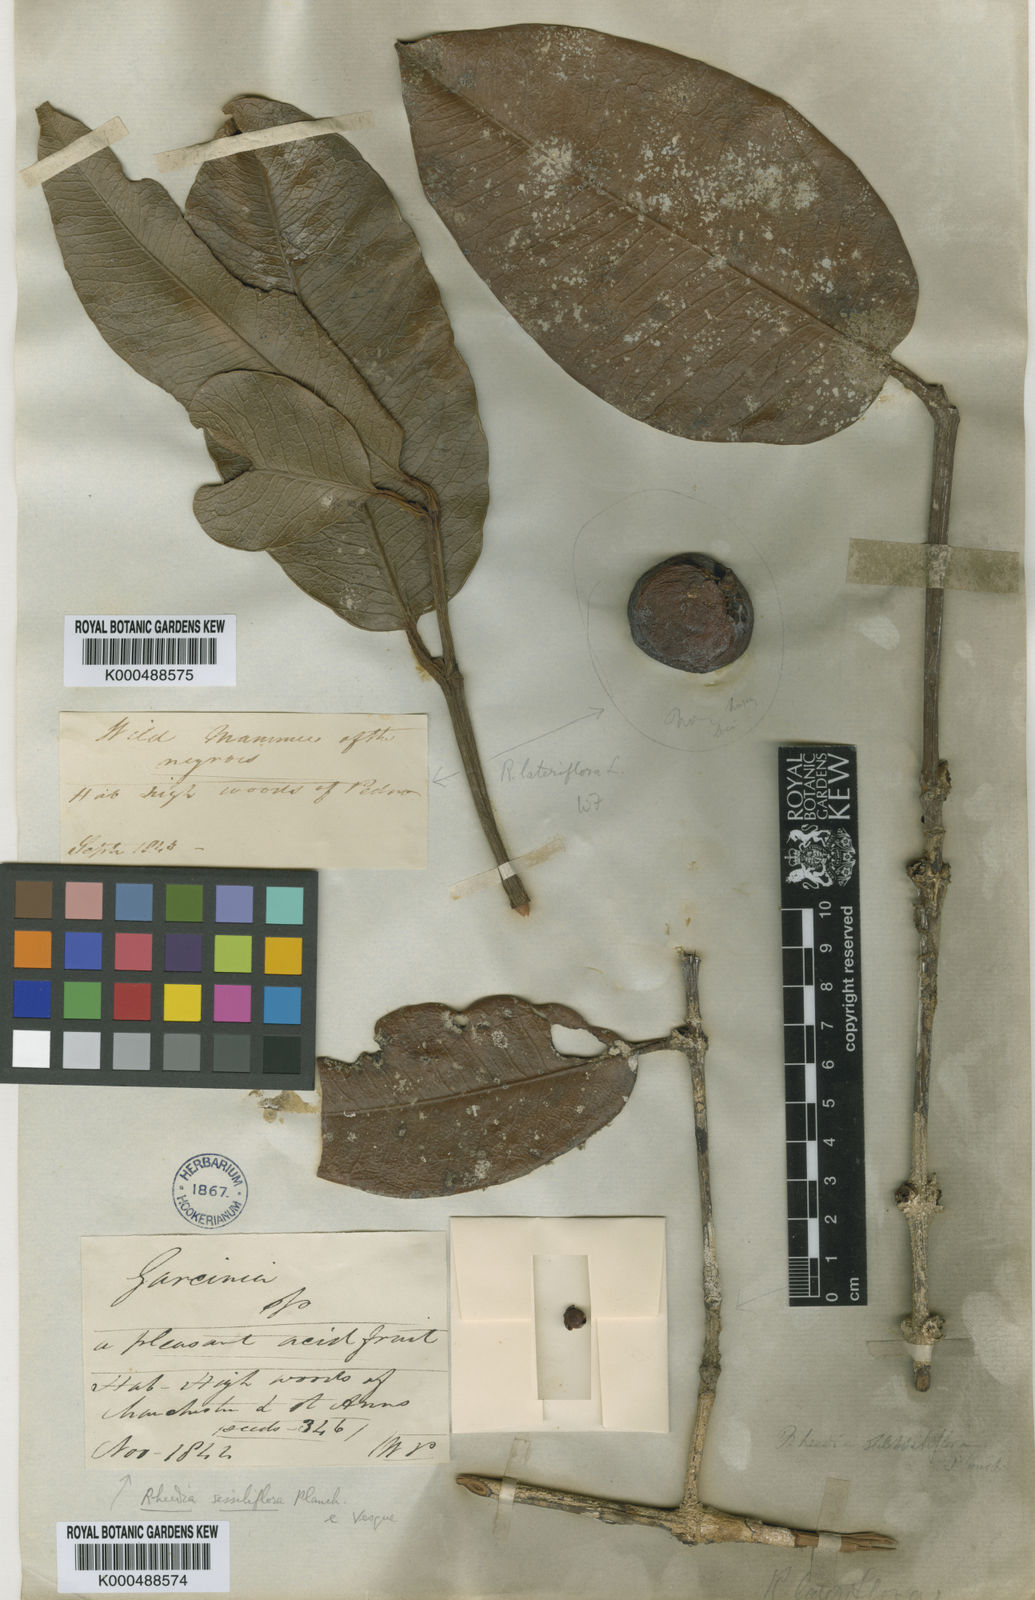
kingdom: Plantae
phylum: Tracheophyta
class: Magnoliopsida
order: Malpighiales
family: Clusiaceae
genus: Garcinia
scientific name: Garcinia
